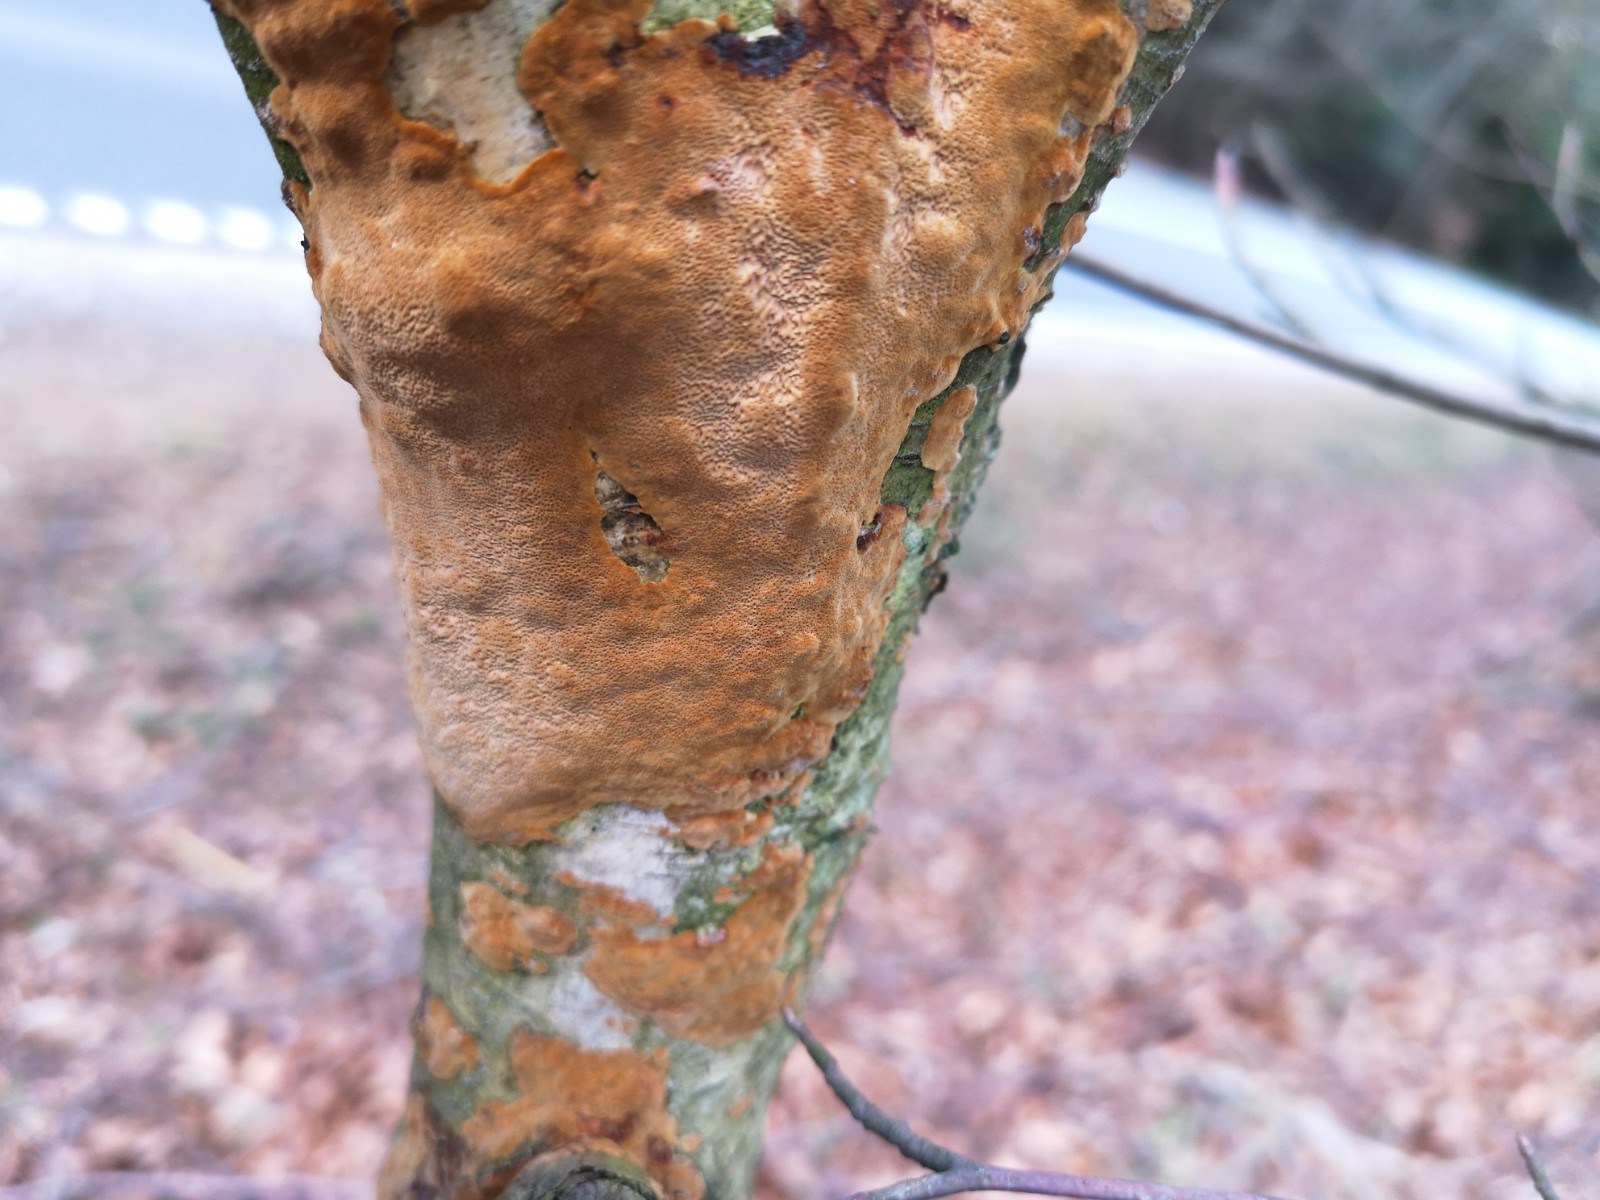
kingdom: Fungi
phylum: Basidiomycota
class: Agaricomycetes
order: Hymenochaetales
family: Hymenochaetaceae
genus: Fuscoporia
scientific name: Fuscoporia ferrea
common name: skorpe-ildporesvamp
